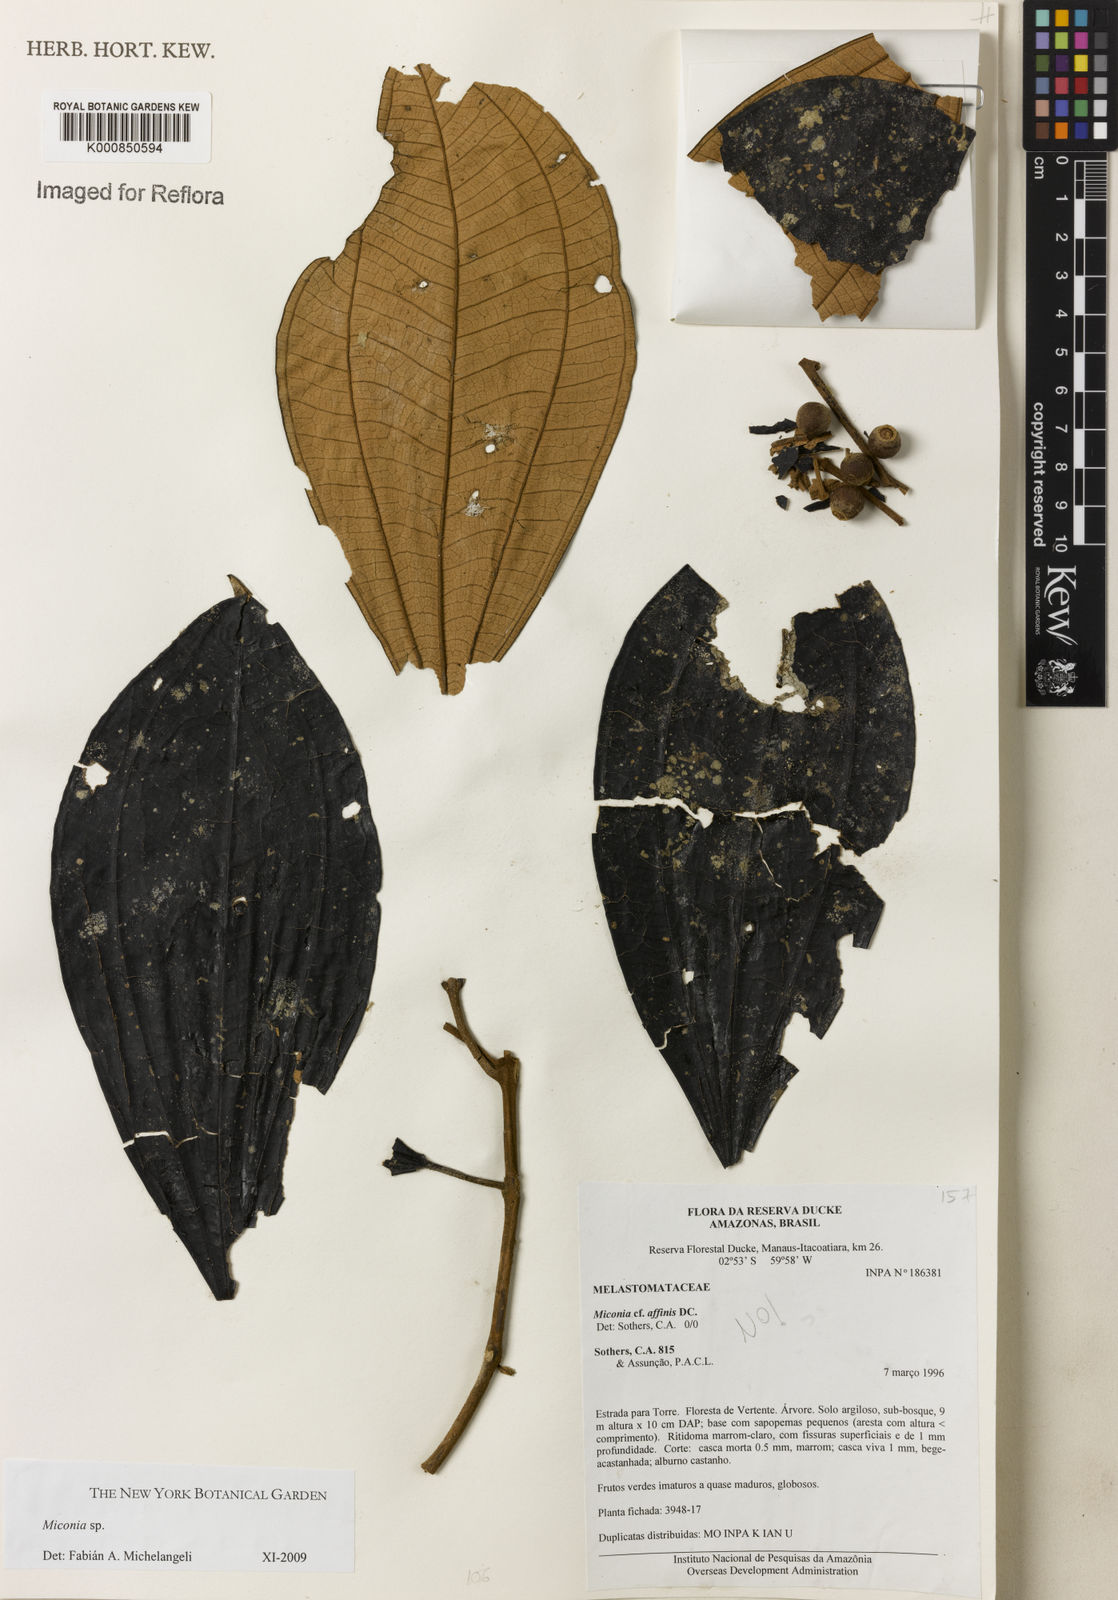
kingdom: Plantae
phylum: Tracheophyta
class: Magnoliopsida
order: Myrtales
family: Melastomataceae
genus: Miconia
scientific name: Miconia
